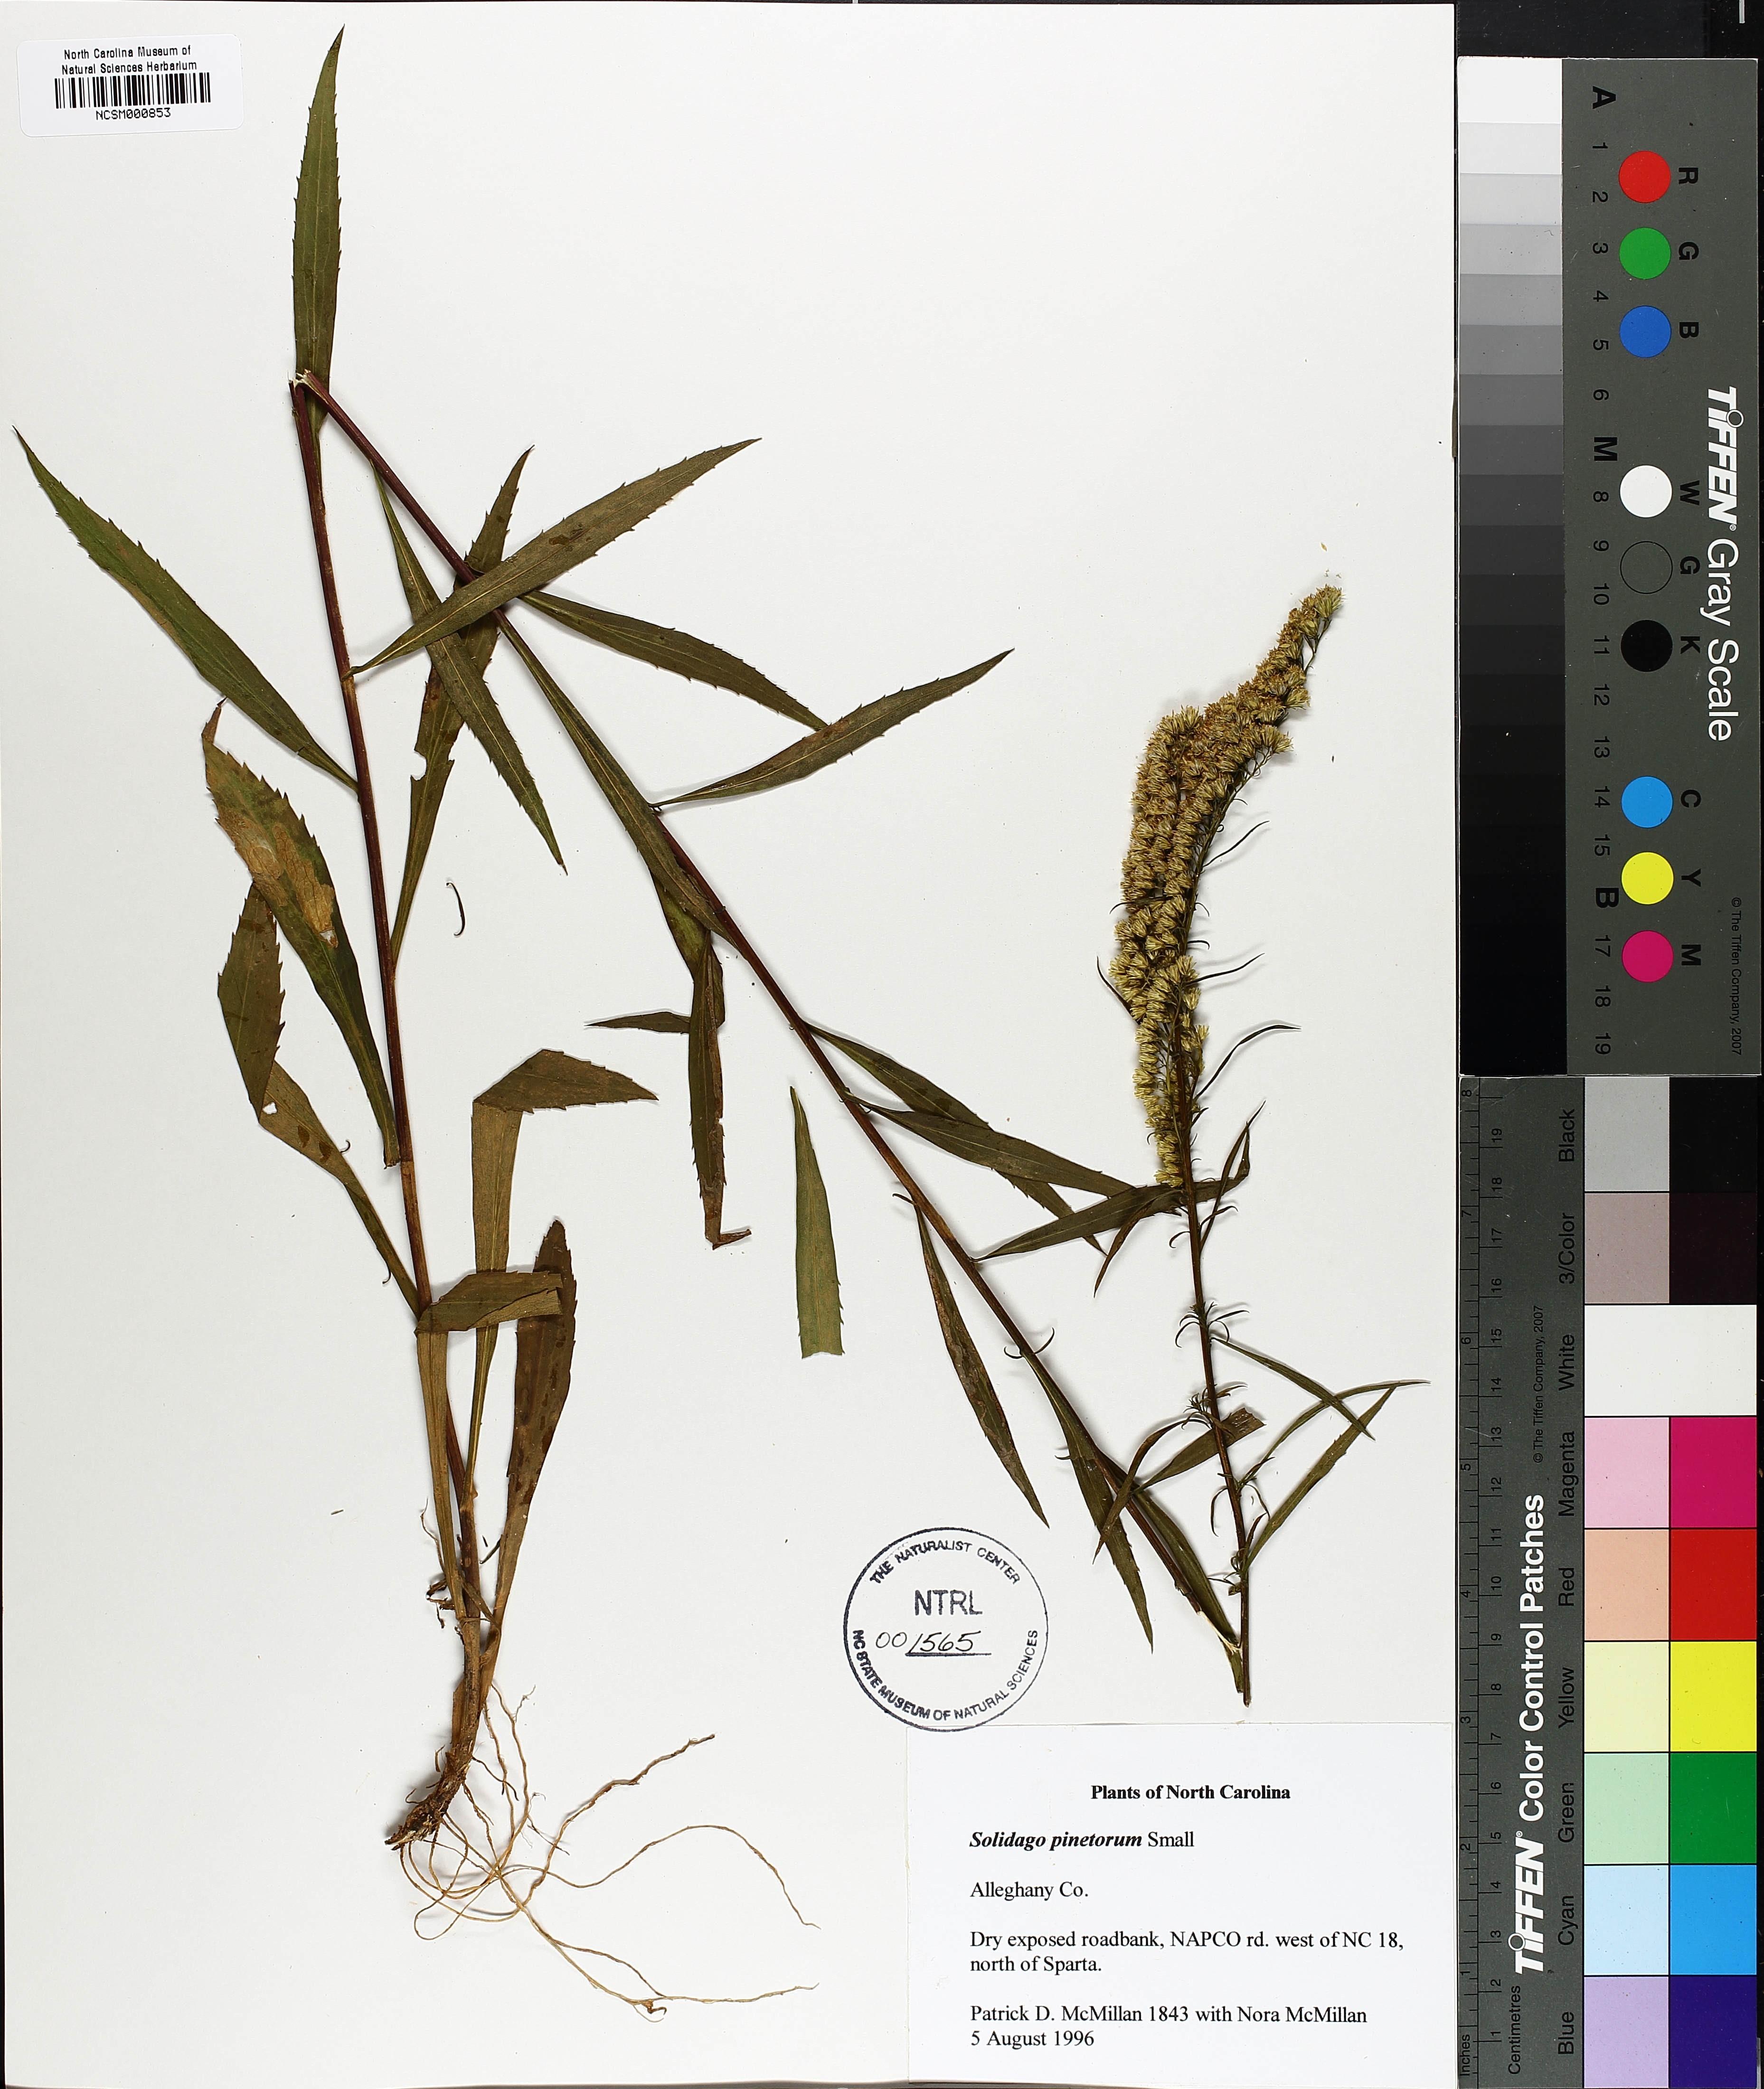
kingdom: Plantae
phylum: Tracheophyta
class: Magnoliopsida
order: Asterales
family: Asteraceae
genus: Solidago
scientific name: Solidago pinetorum
